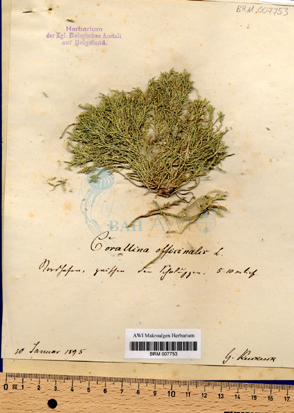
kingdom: Plantae
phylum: Rhodophyta
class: Florideophyceae
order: Corallinales
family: Corallinaceae
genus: Corallina
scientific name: Corallina officinalis
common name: Coral weed
